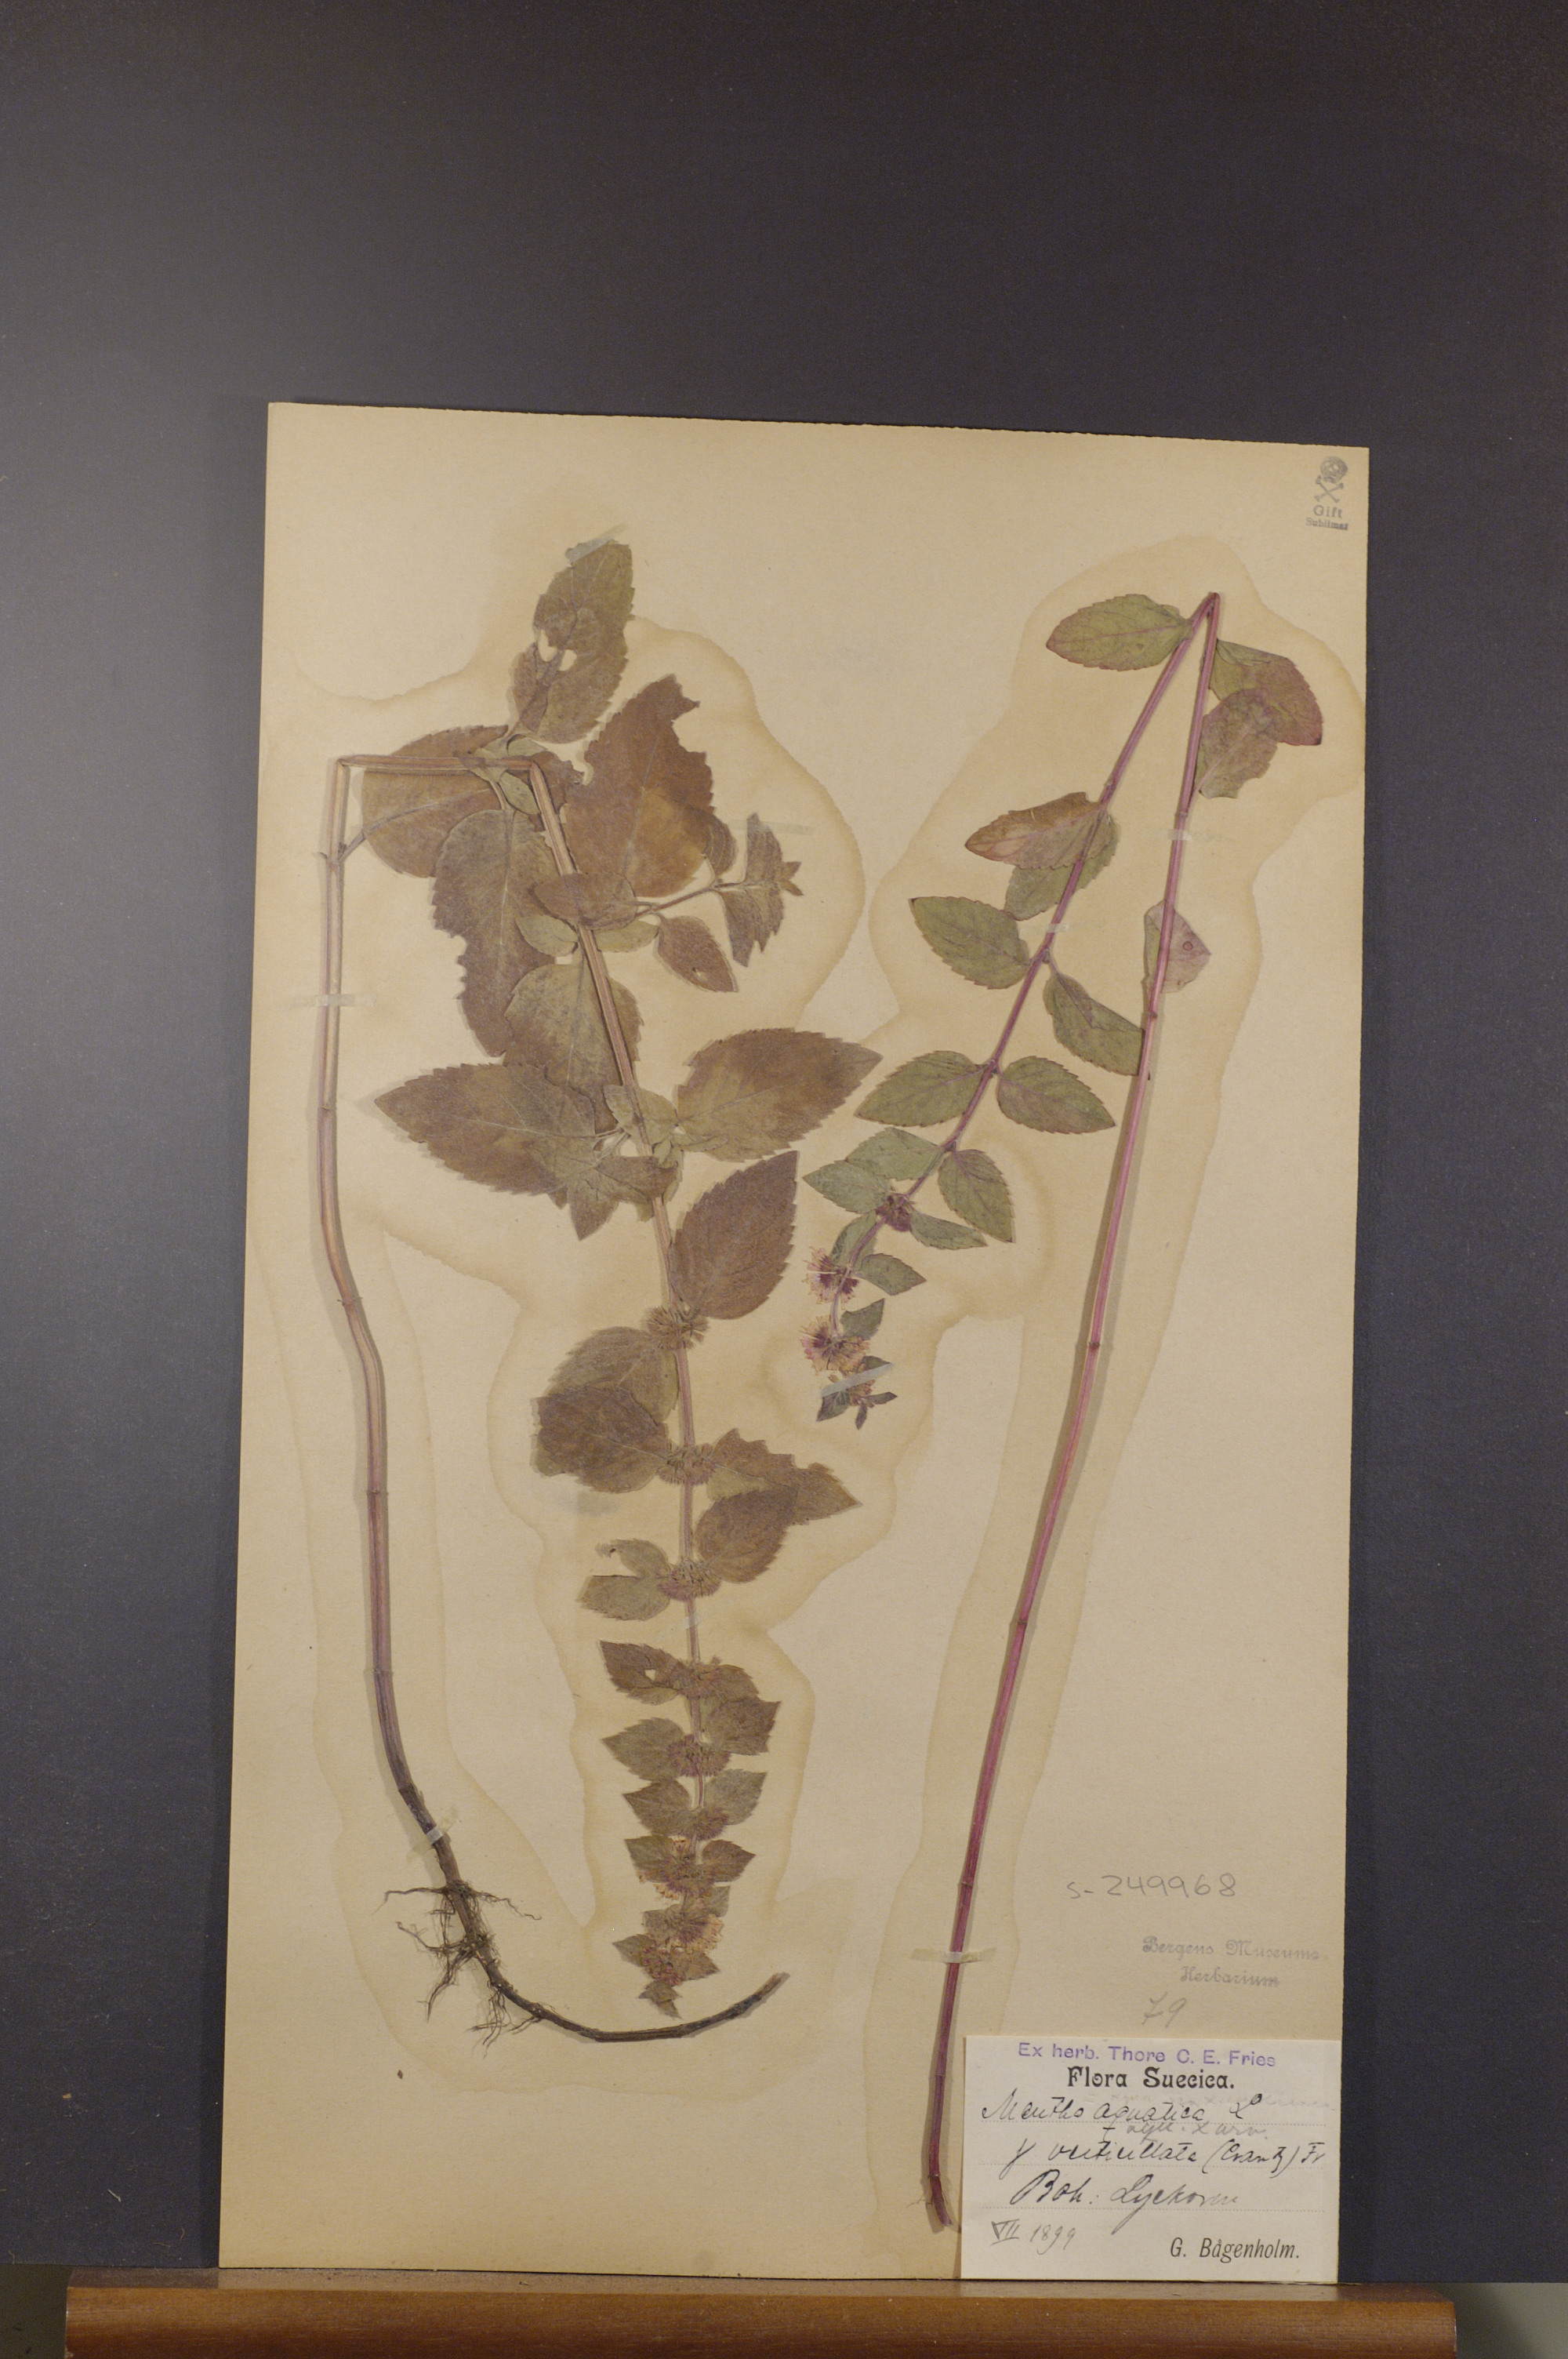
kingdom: Plantae
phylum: Tracheophyta
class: Magnoliopsida
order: Lamiales
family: Lamiaceae
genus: Mentha
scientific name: Mentha verticillata
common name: Mint
